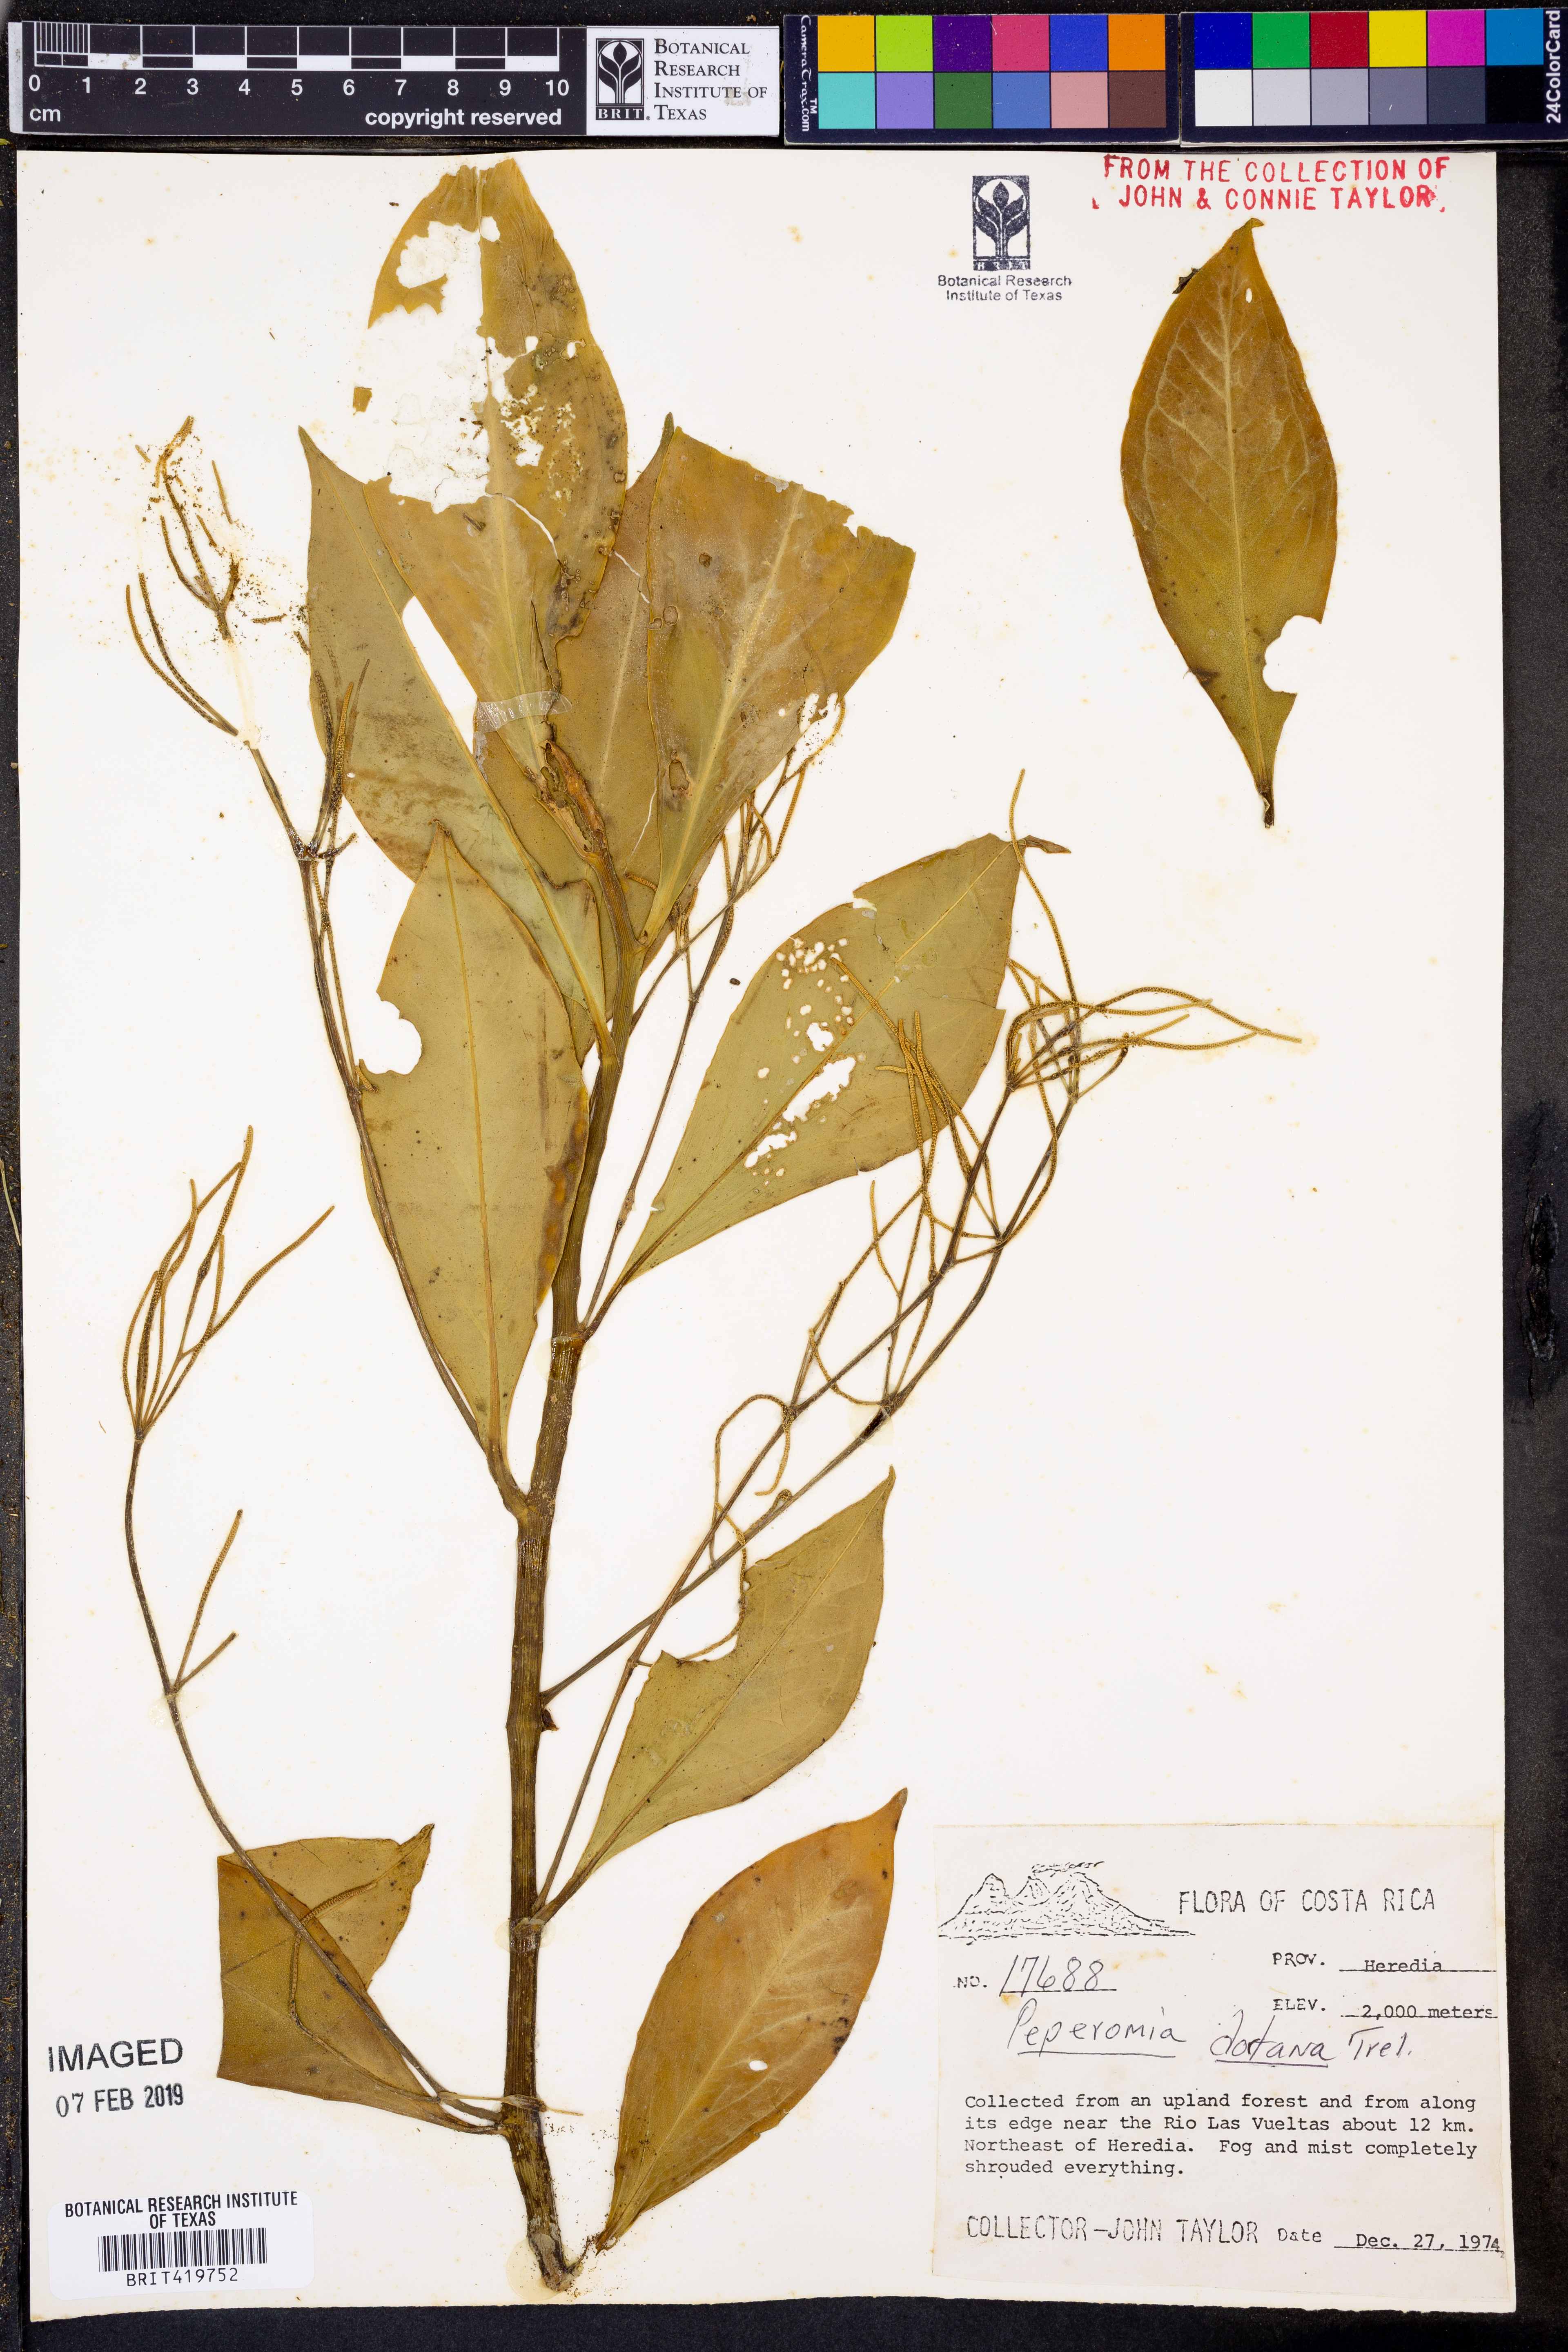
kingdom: Plantae
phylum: Tracheophyta
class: Magnoliopsida
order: Piperales
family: Piperaceae
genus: Peperomia
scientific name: Peperomia dotana
